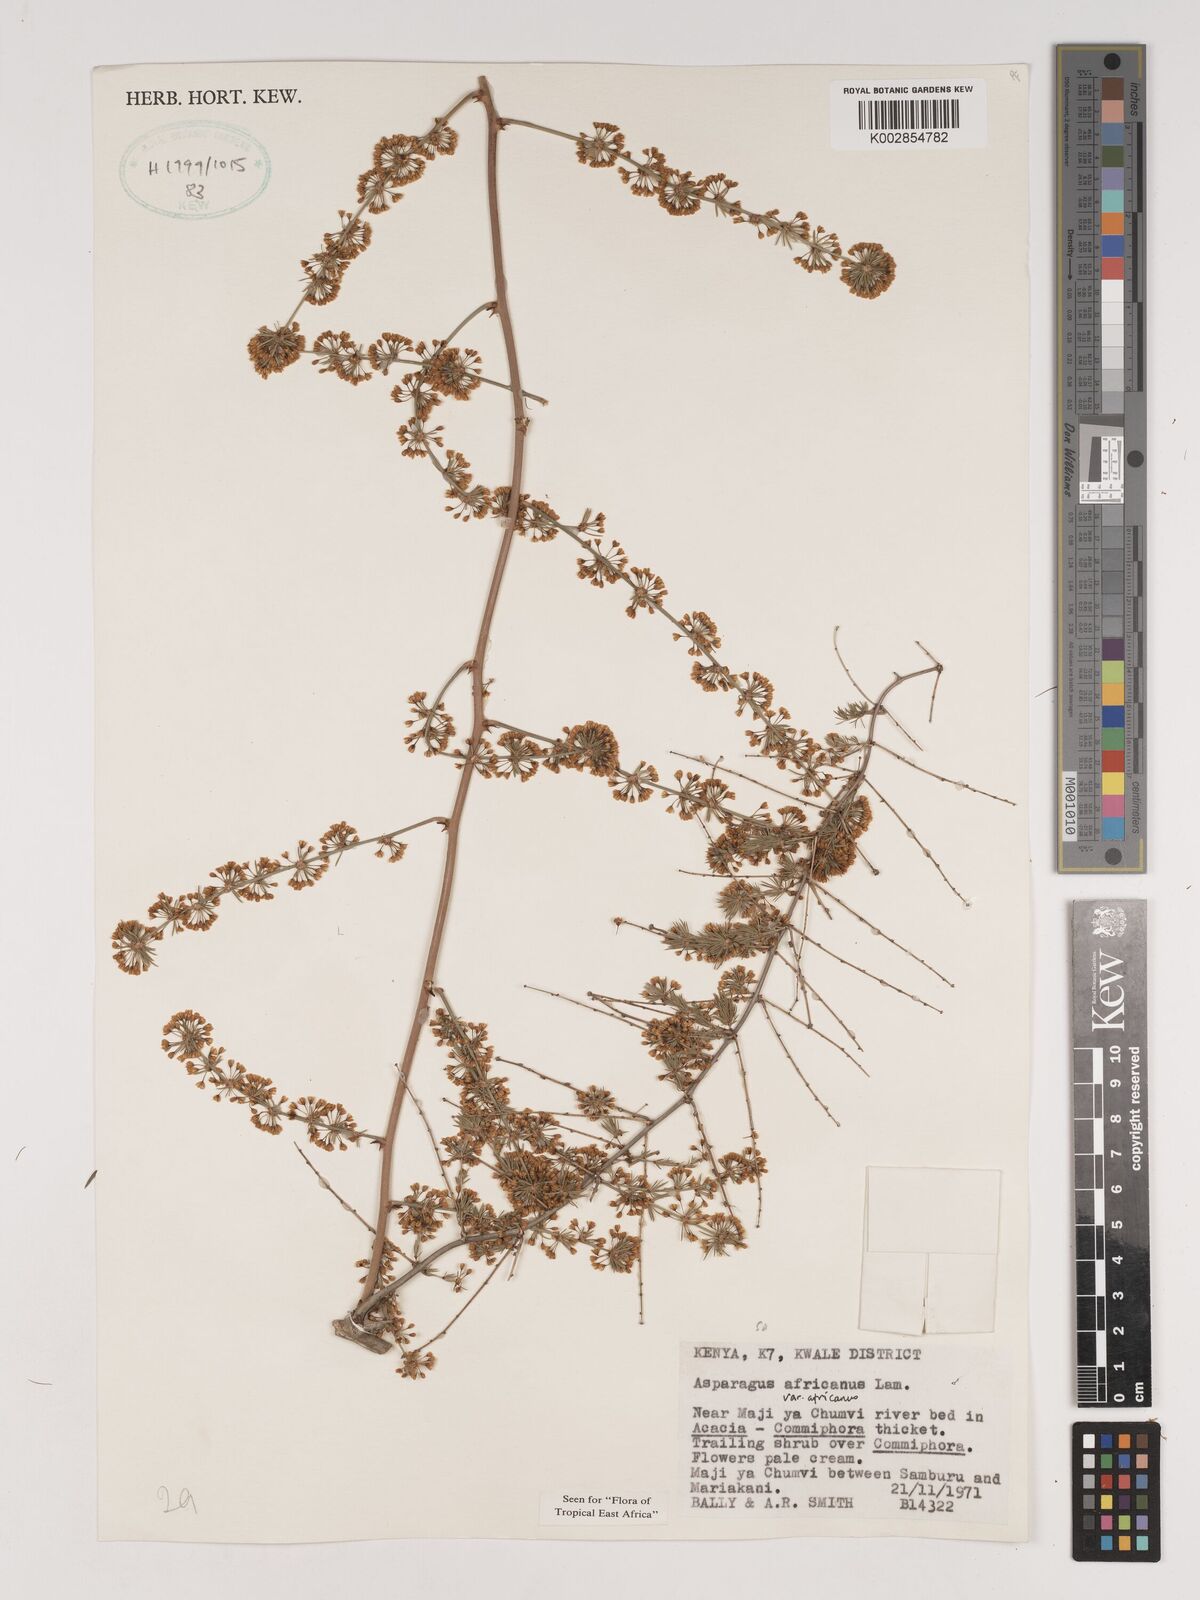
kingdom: Plantae
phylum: Tracheophyta
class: Liliopsida
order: Asparagales
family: Asparagaceae
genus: Asparagus
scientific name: Asparagus africanus
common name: Asparagus-fern
